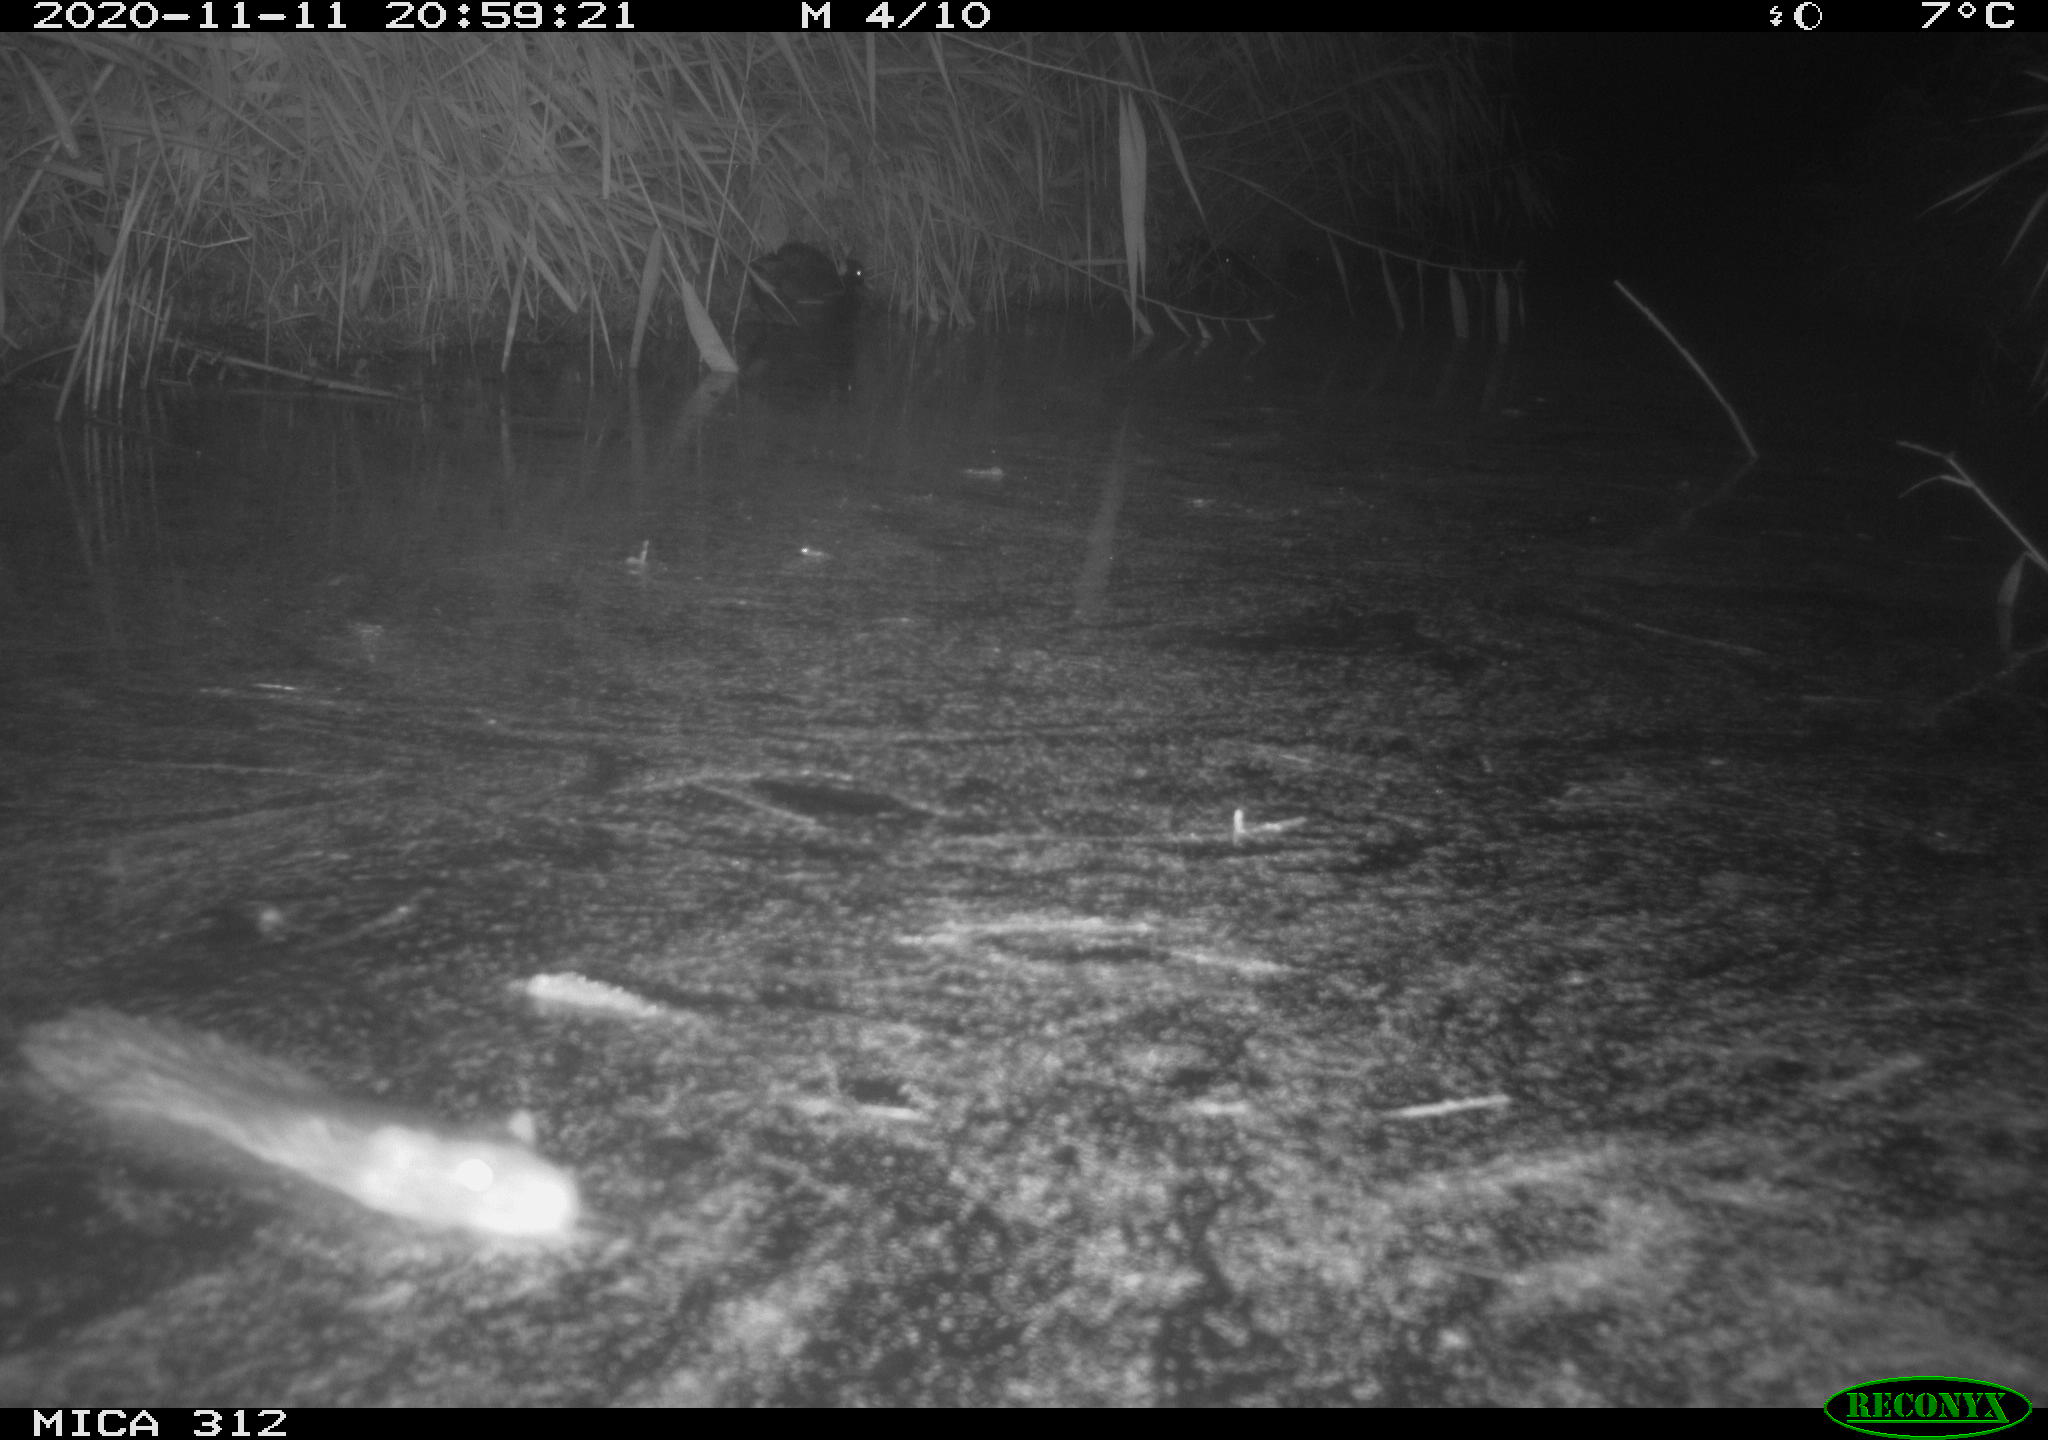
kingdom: Animalia
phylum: Chordata
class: Mammalia
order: Rodentia
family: Muridae
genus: Rattus
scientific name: Rattus norvegicus
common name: Brown rat
